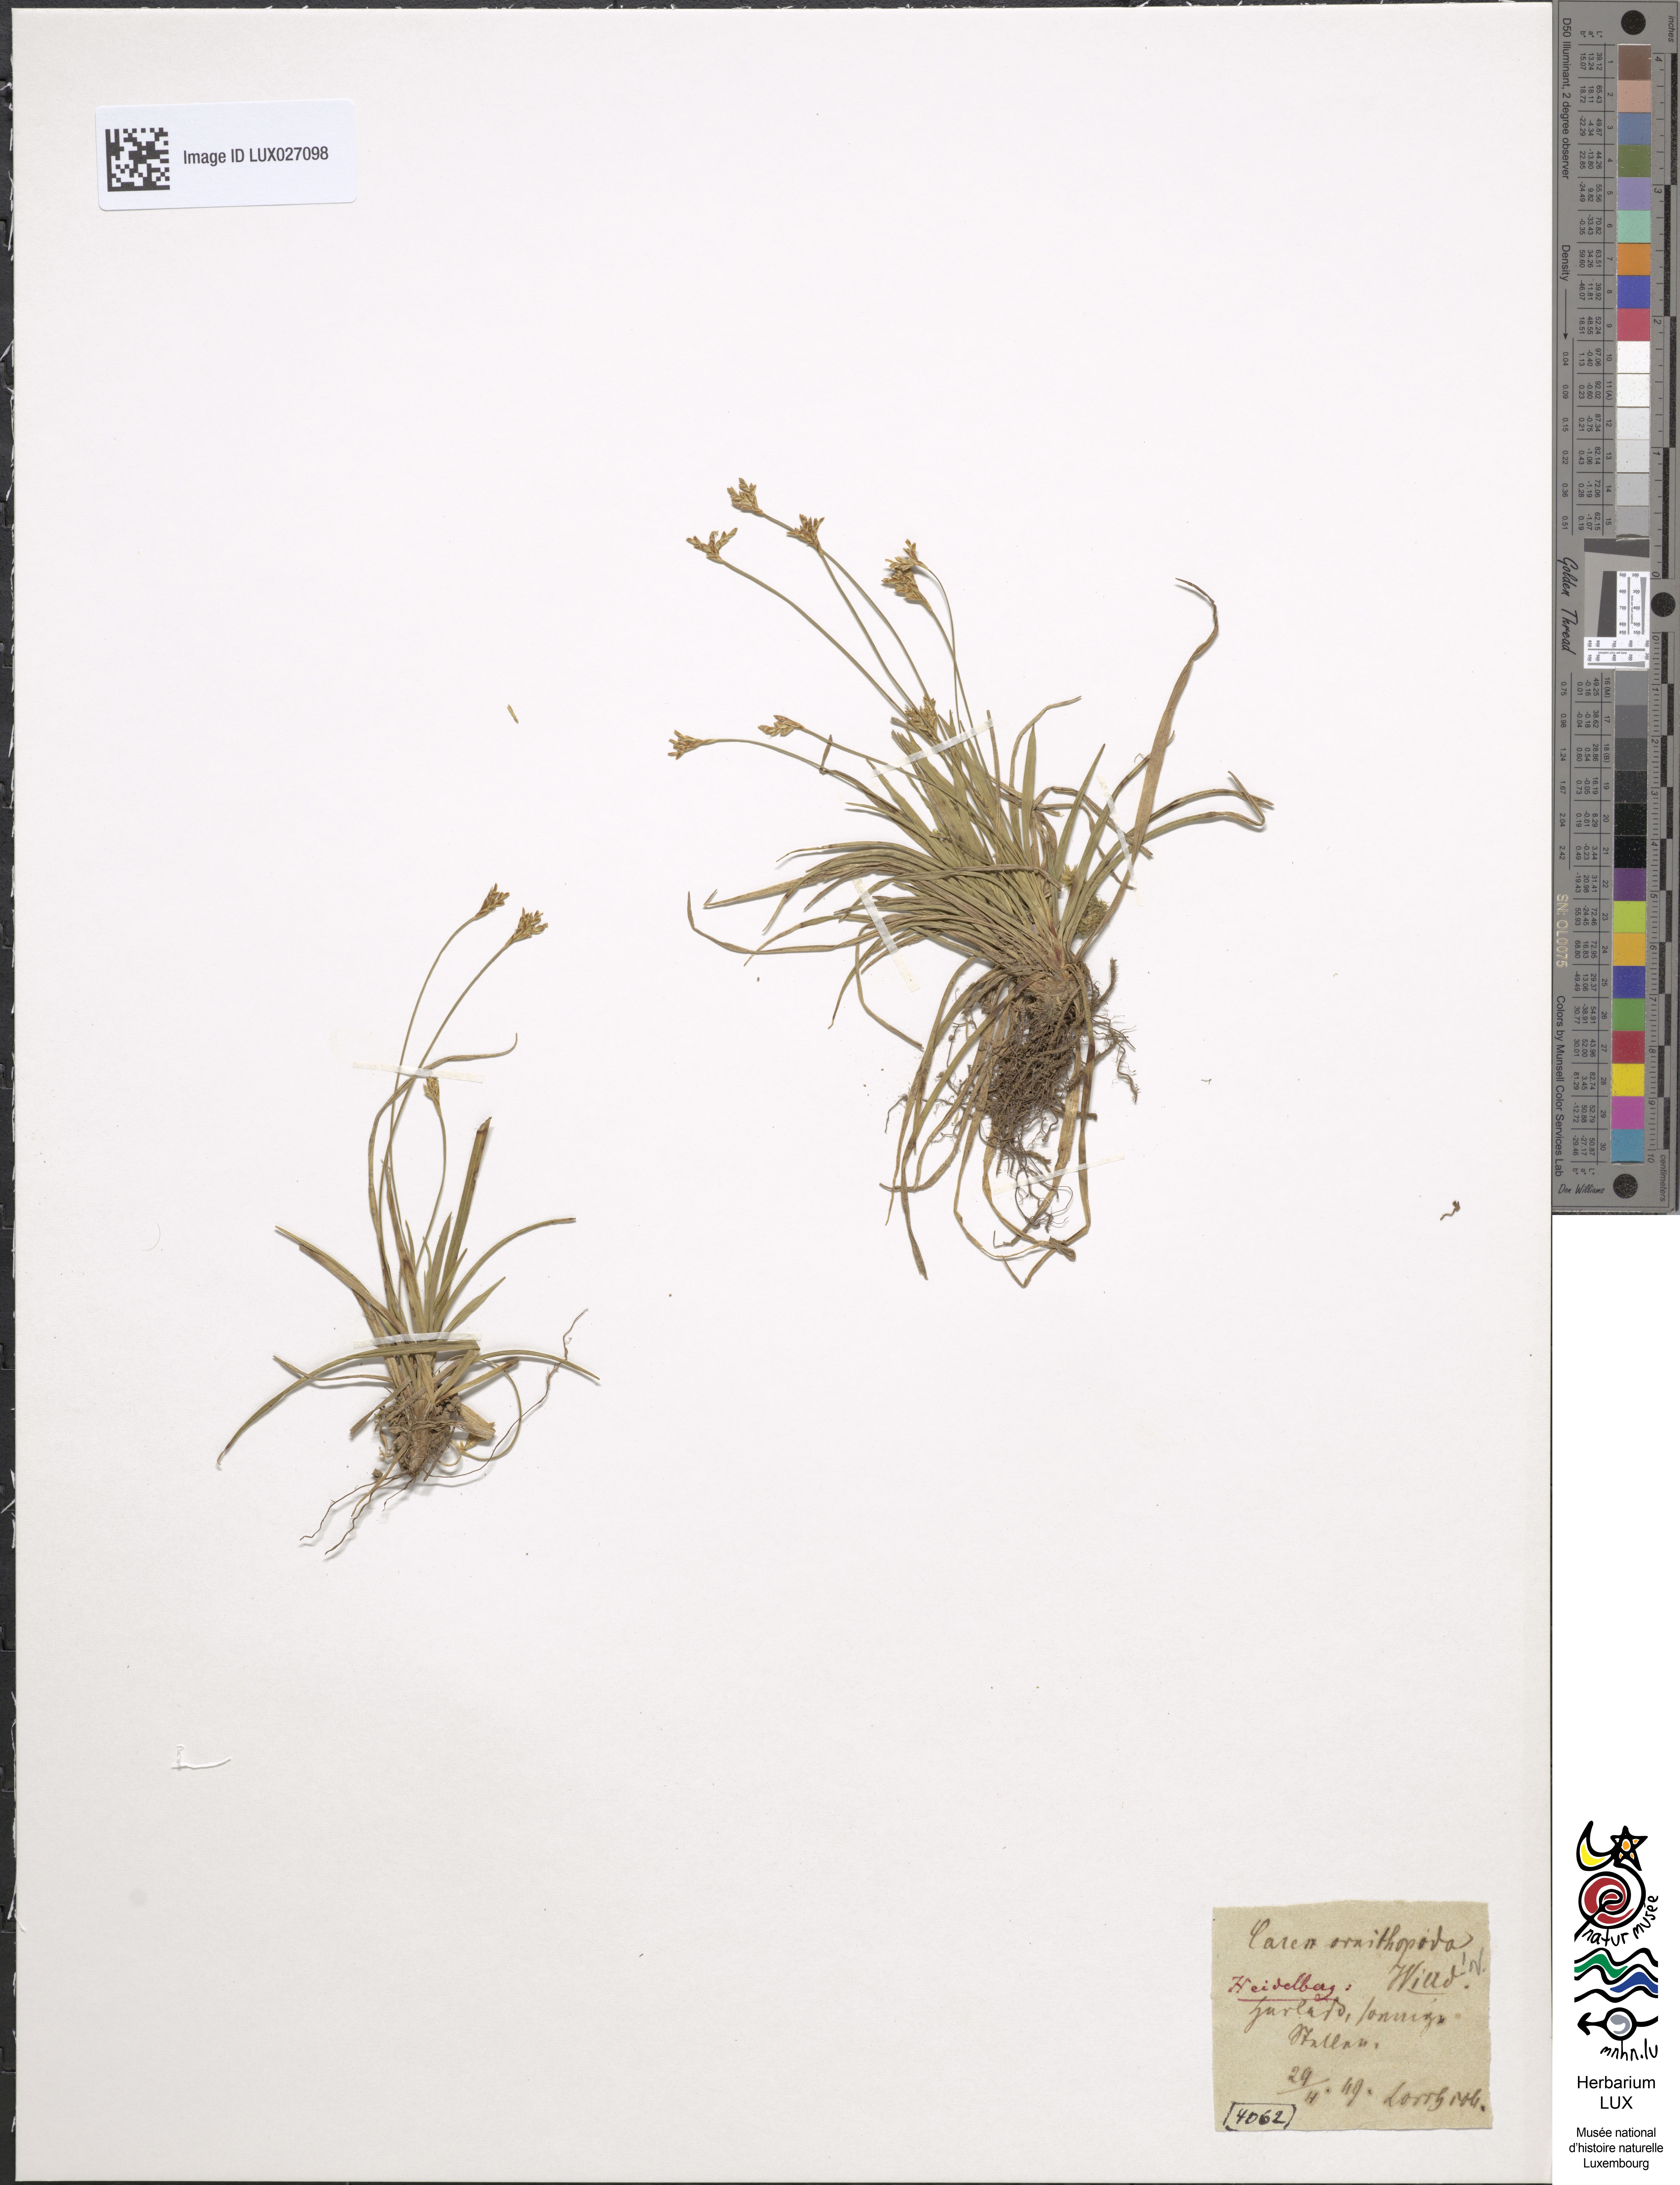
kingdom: Plantae
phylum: Tracheophyta
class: Liliopsida
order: Poales
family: Cyperaceae
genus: Carex
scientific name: Carex ornithopoda
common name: Bird's-foot sedge
